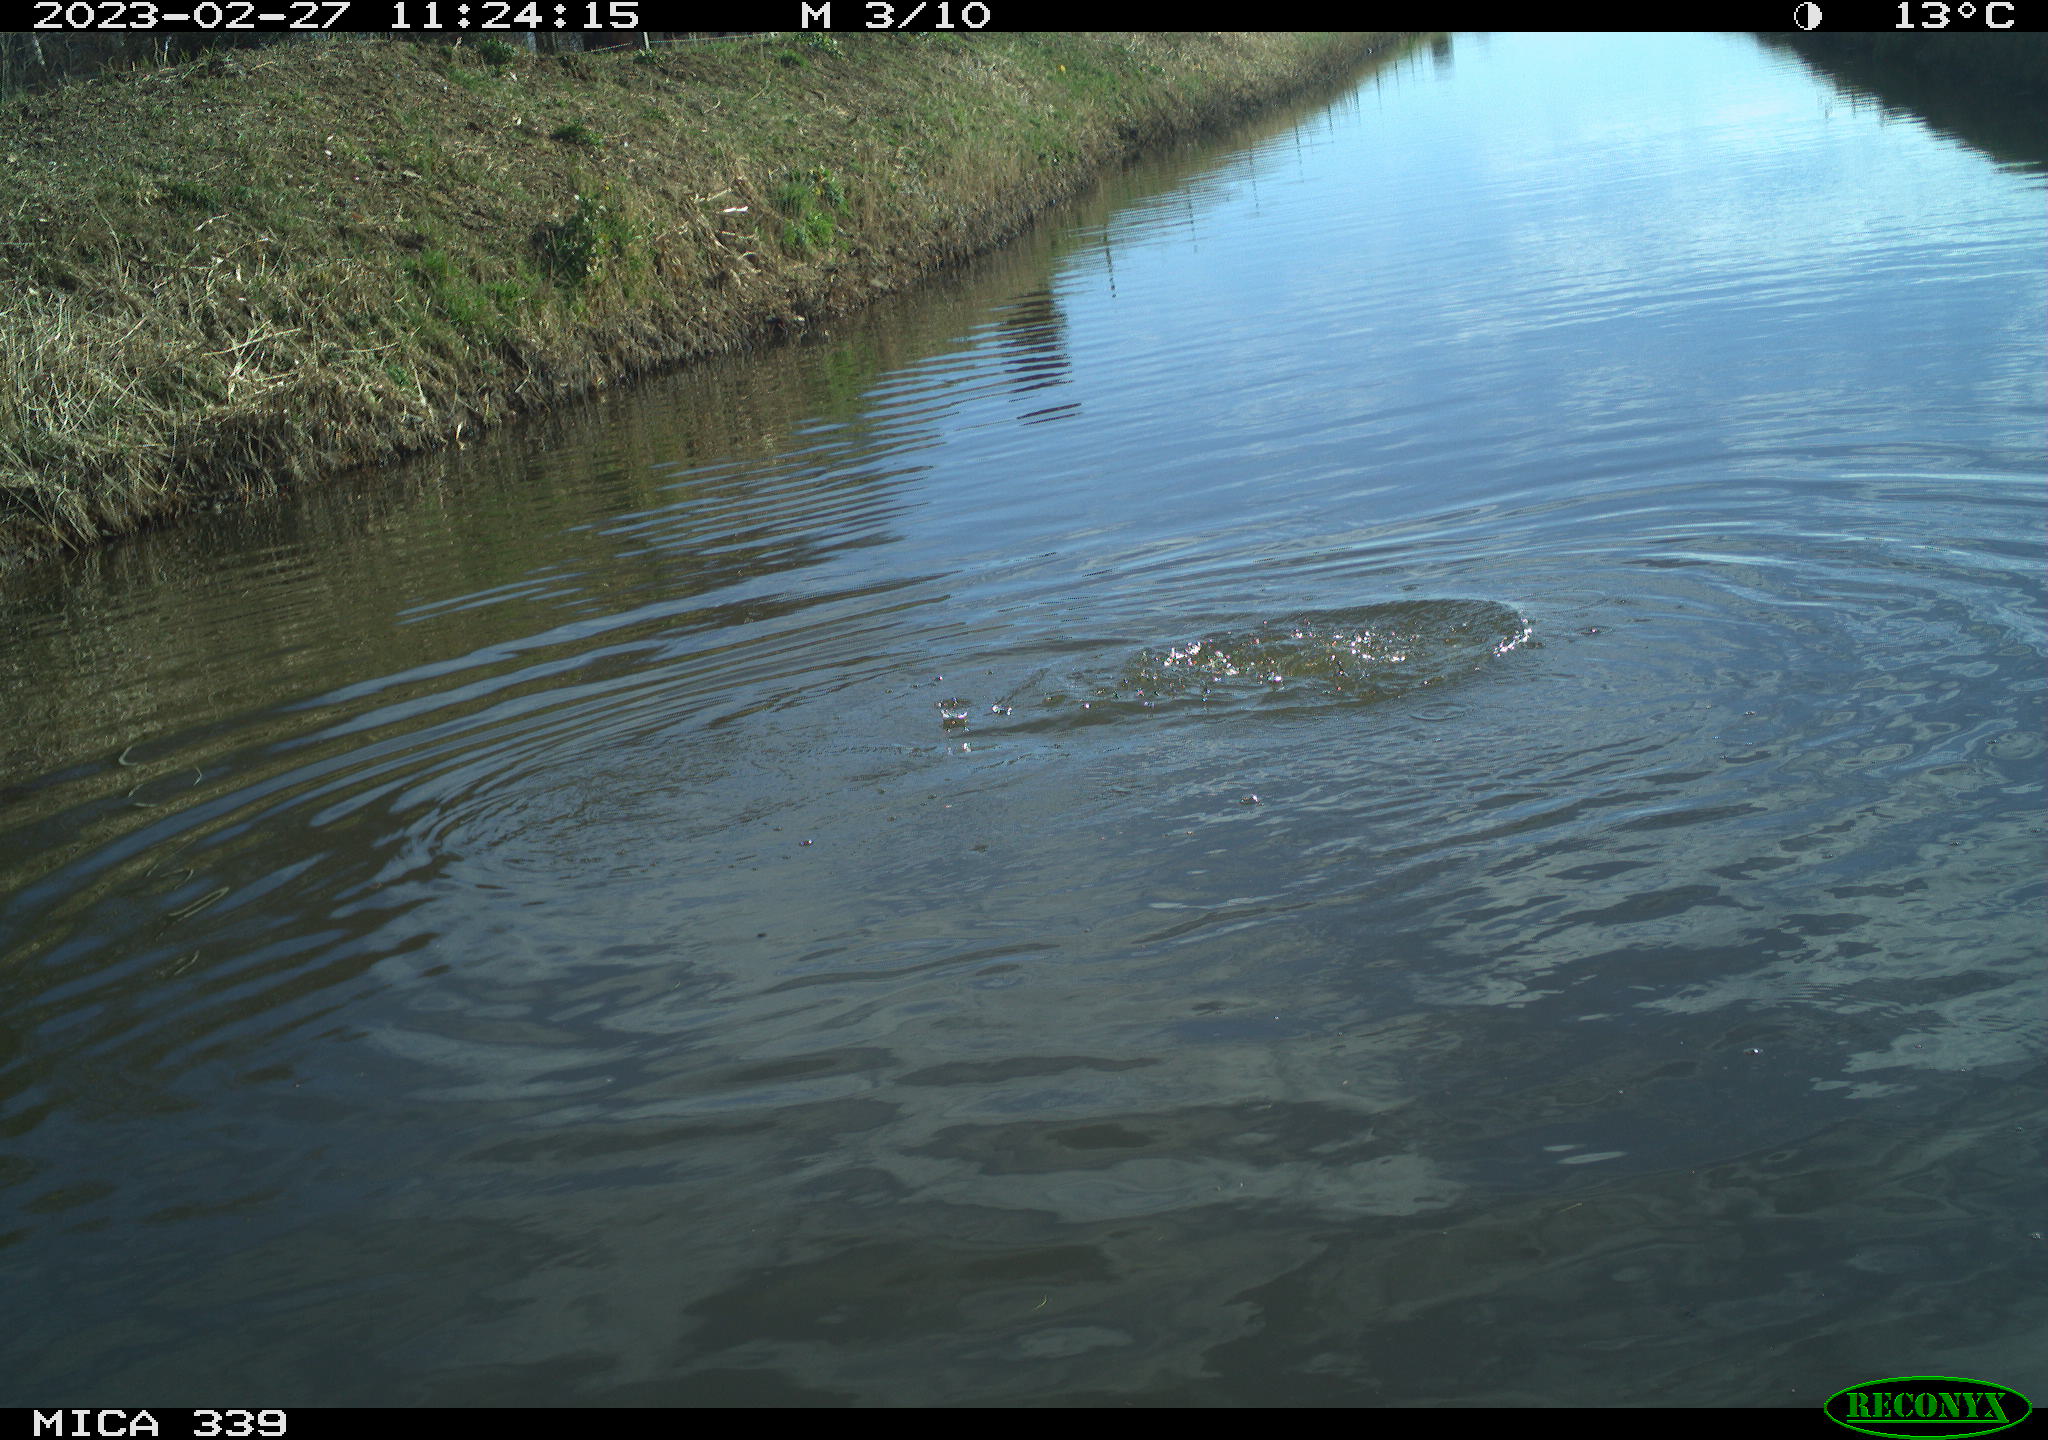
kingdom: Animalia
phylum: Chordata
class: Aves
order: Suliformes
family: Phalacrocoracidae
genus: Phalacrocorax
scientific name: Phalacrocorax carbo
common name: Great cormorant
